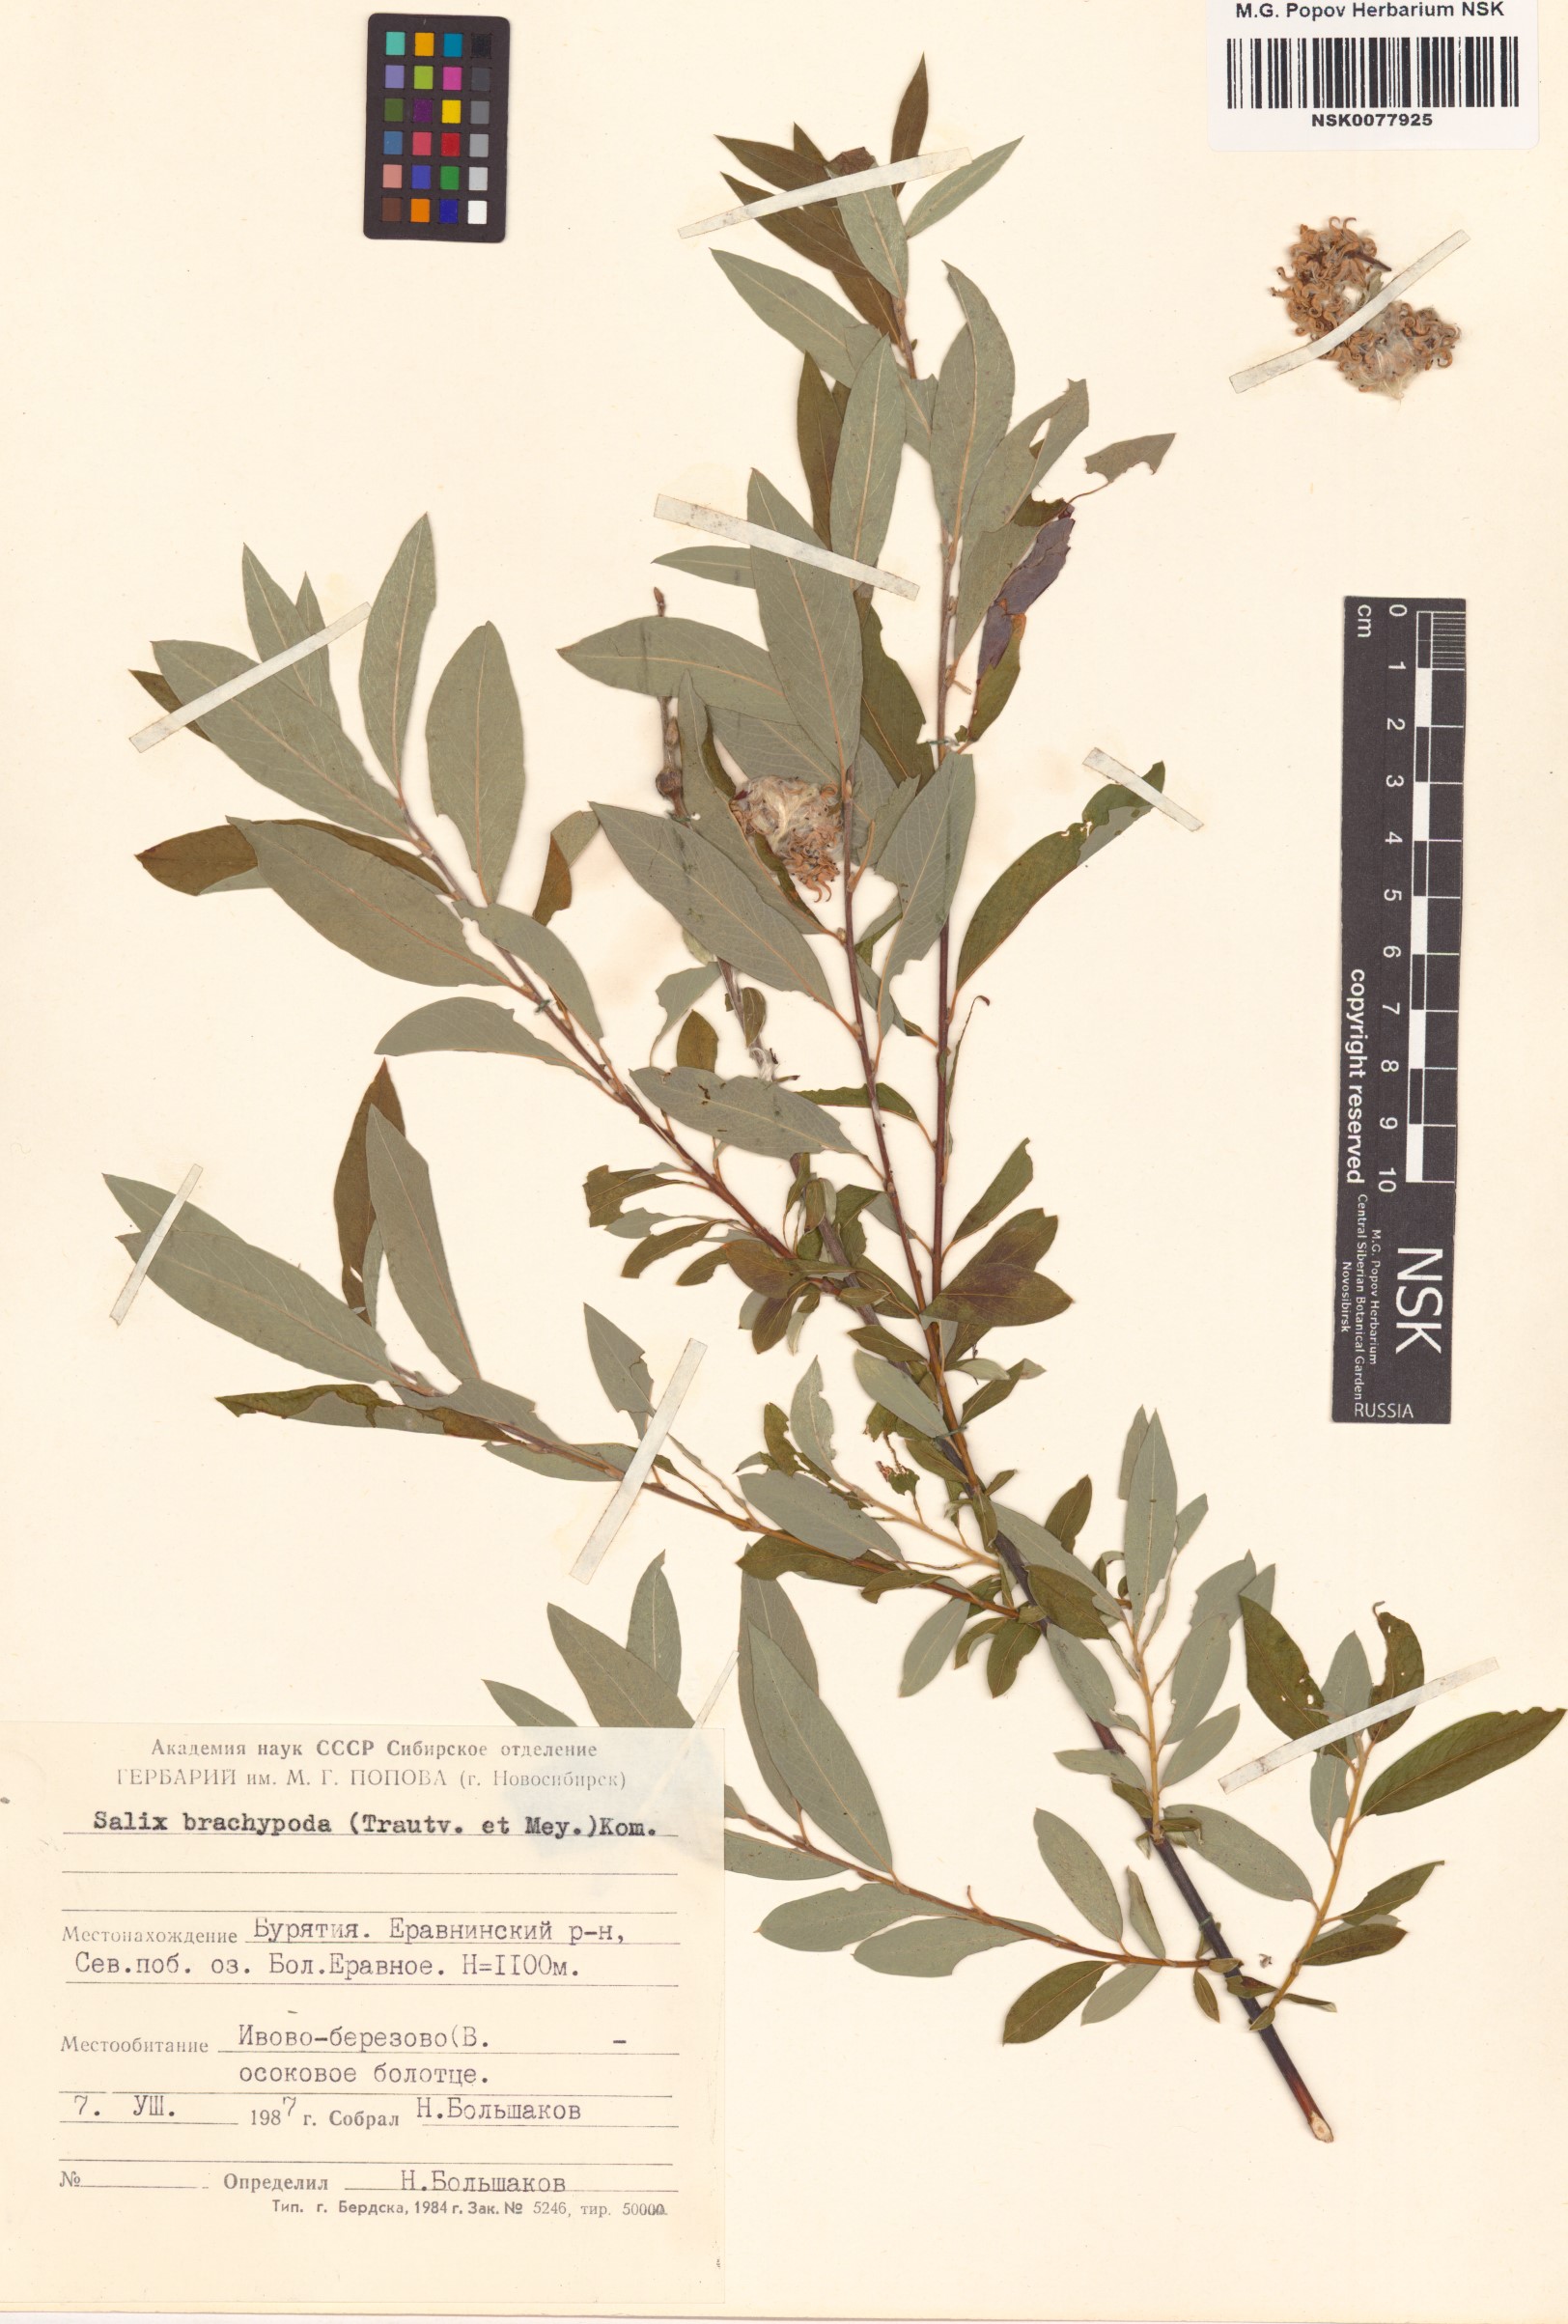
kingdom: Plantae
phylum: Tracheophyta
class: Magnoliopsida
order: Malpighiales
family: Salicaceae
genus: Salix
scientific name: Salix brachypoda
